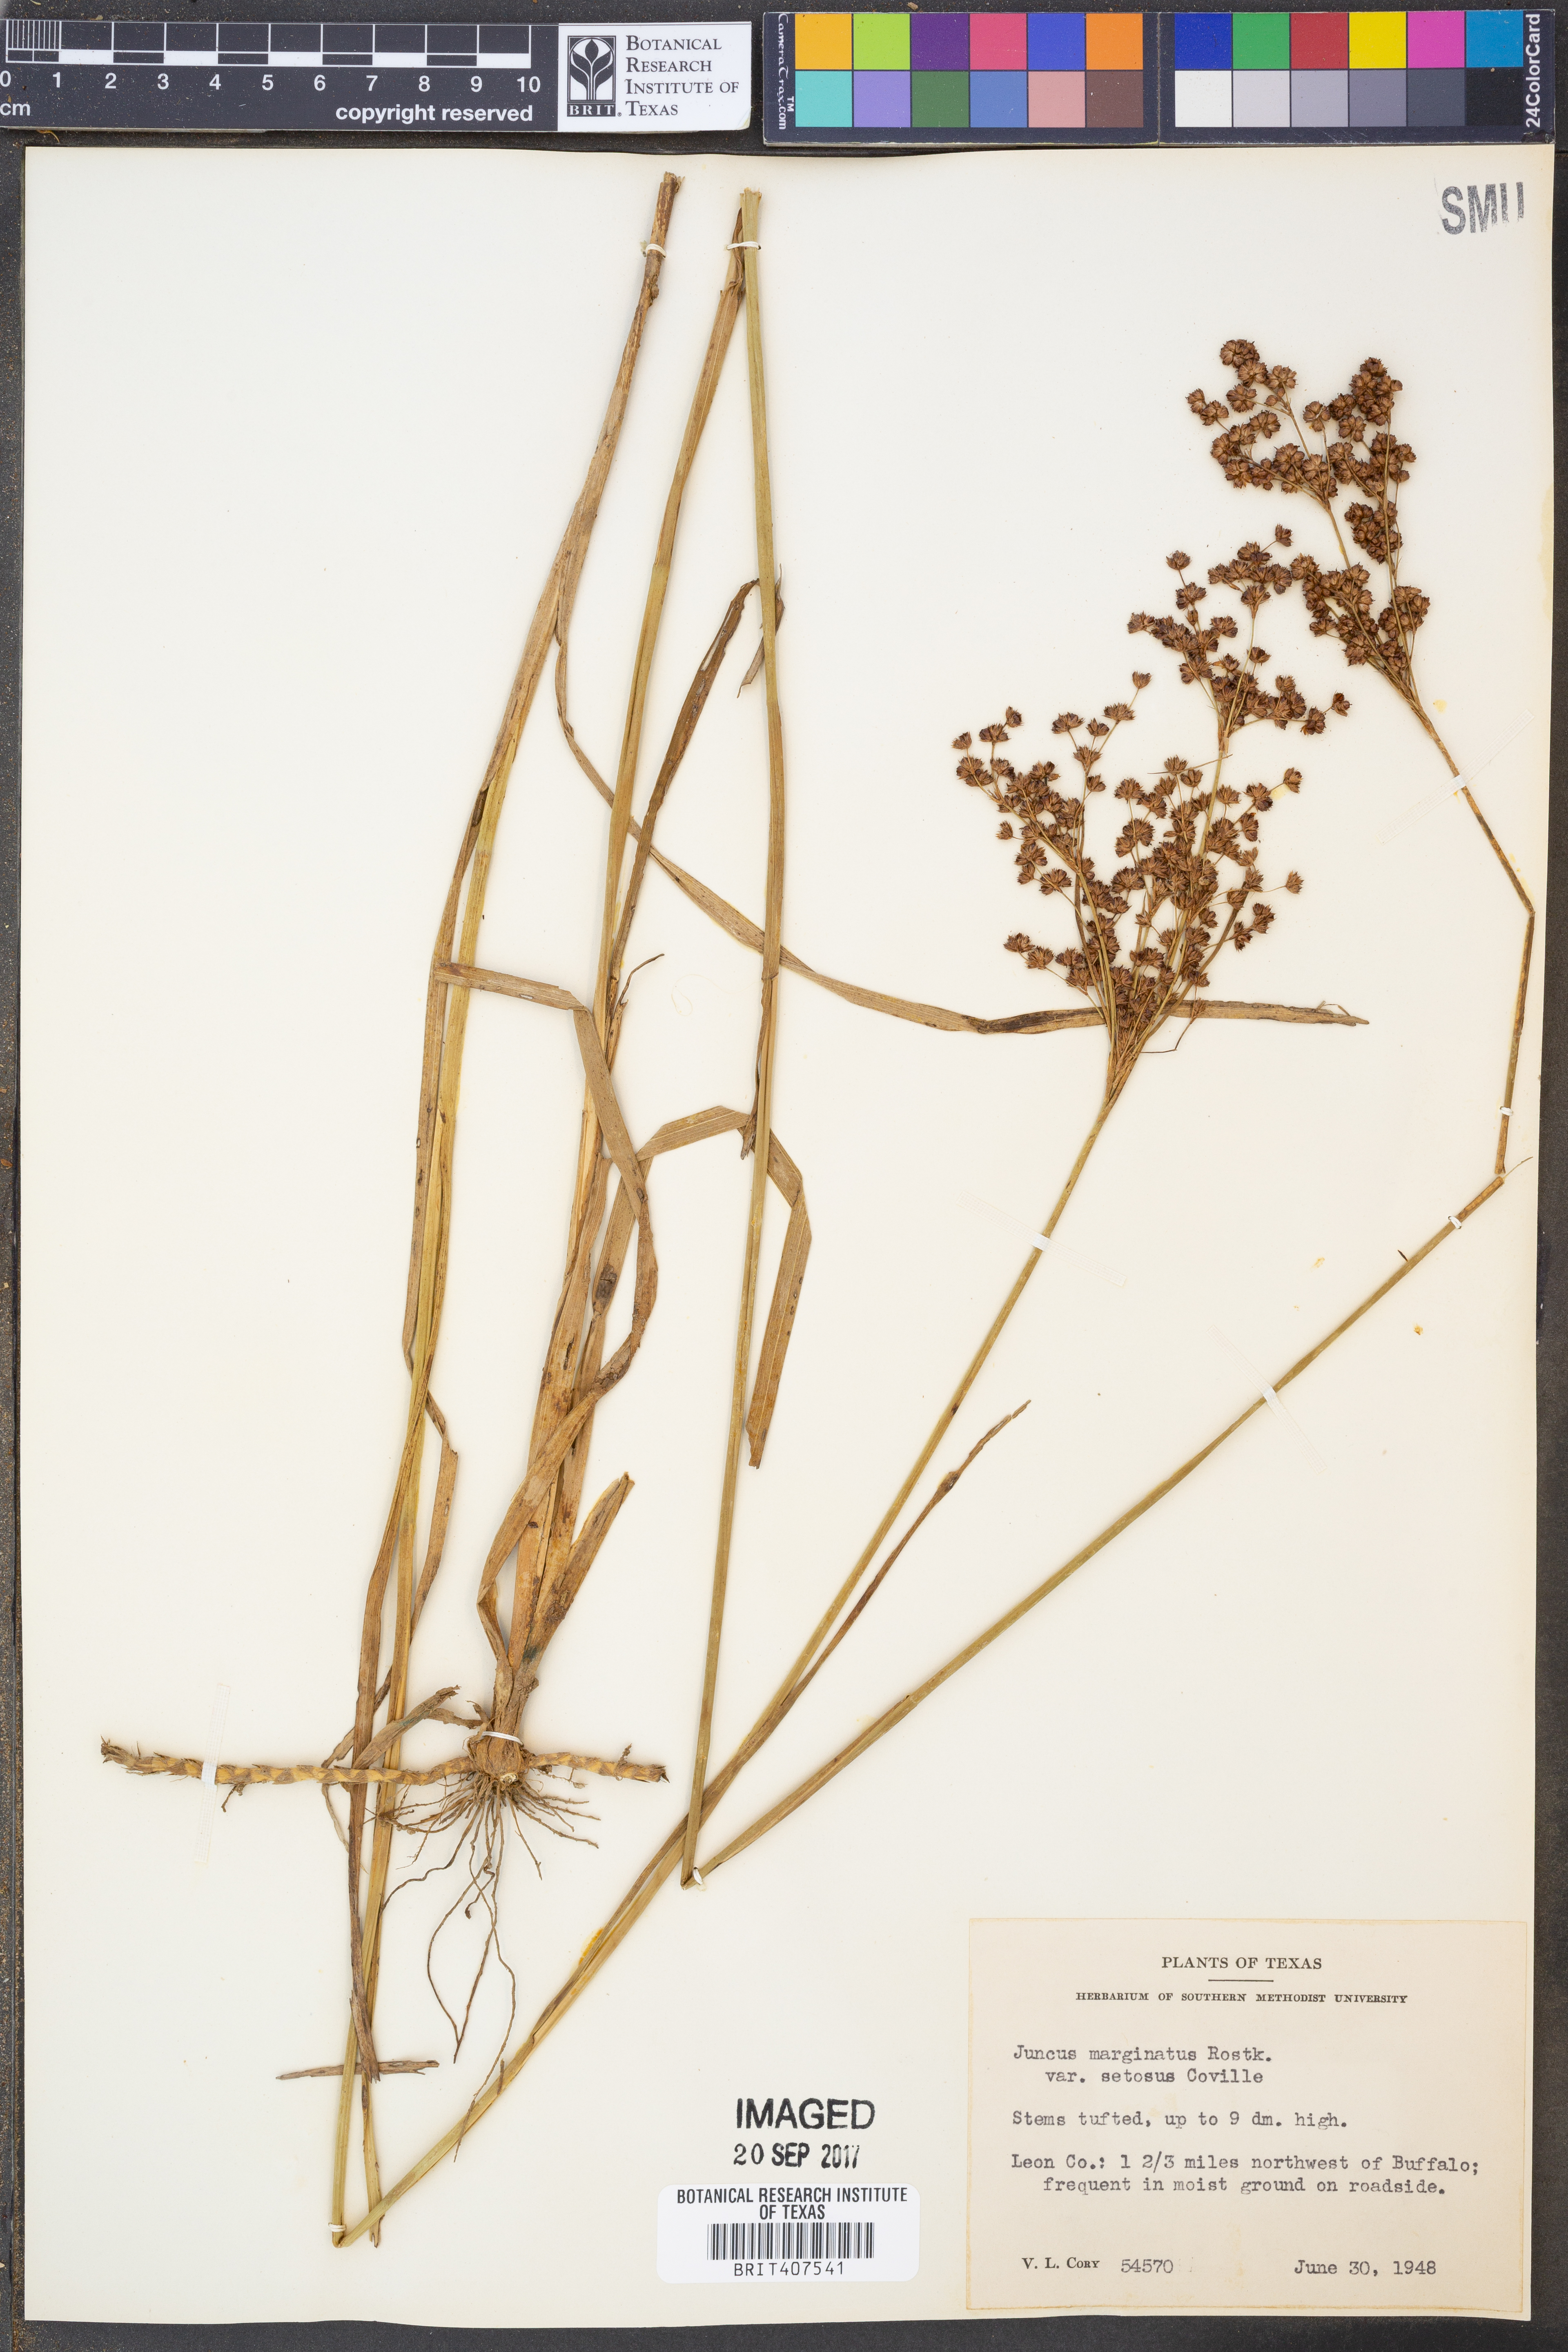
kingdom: Plantae
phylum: Tracheophyta
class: Liliopsida
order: Poales
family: Juncaceae
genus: Juncus
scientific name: Juncus marginatus
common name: Grass-leaf rush
